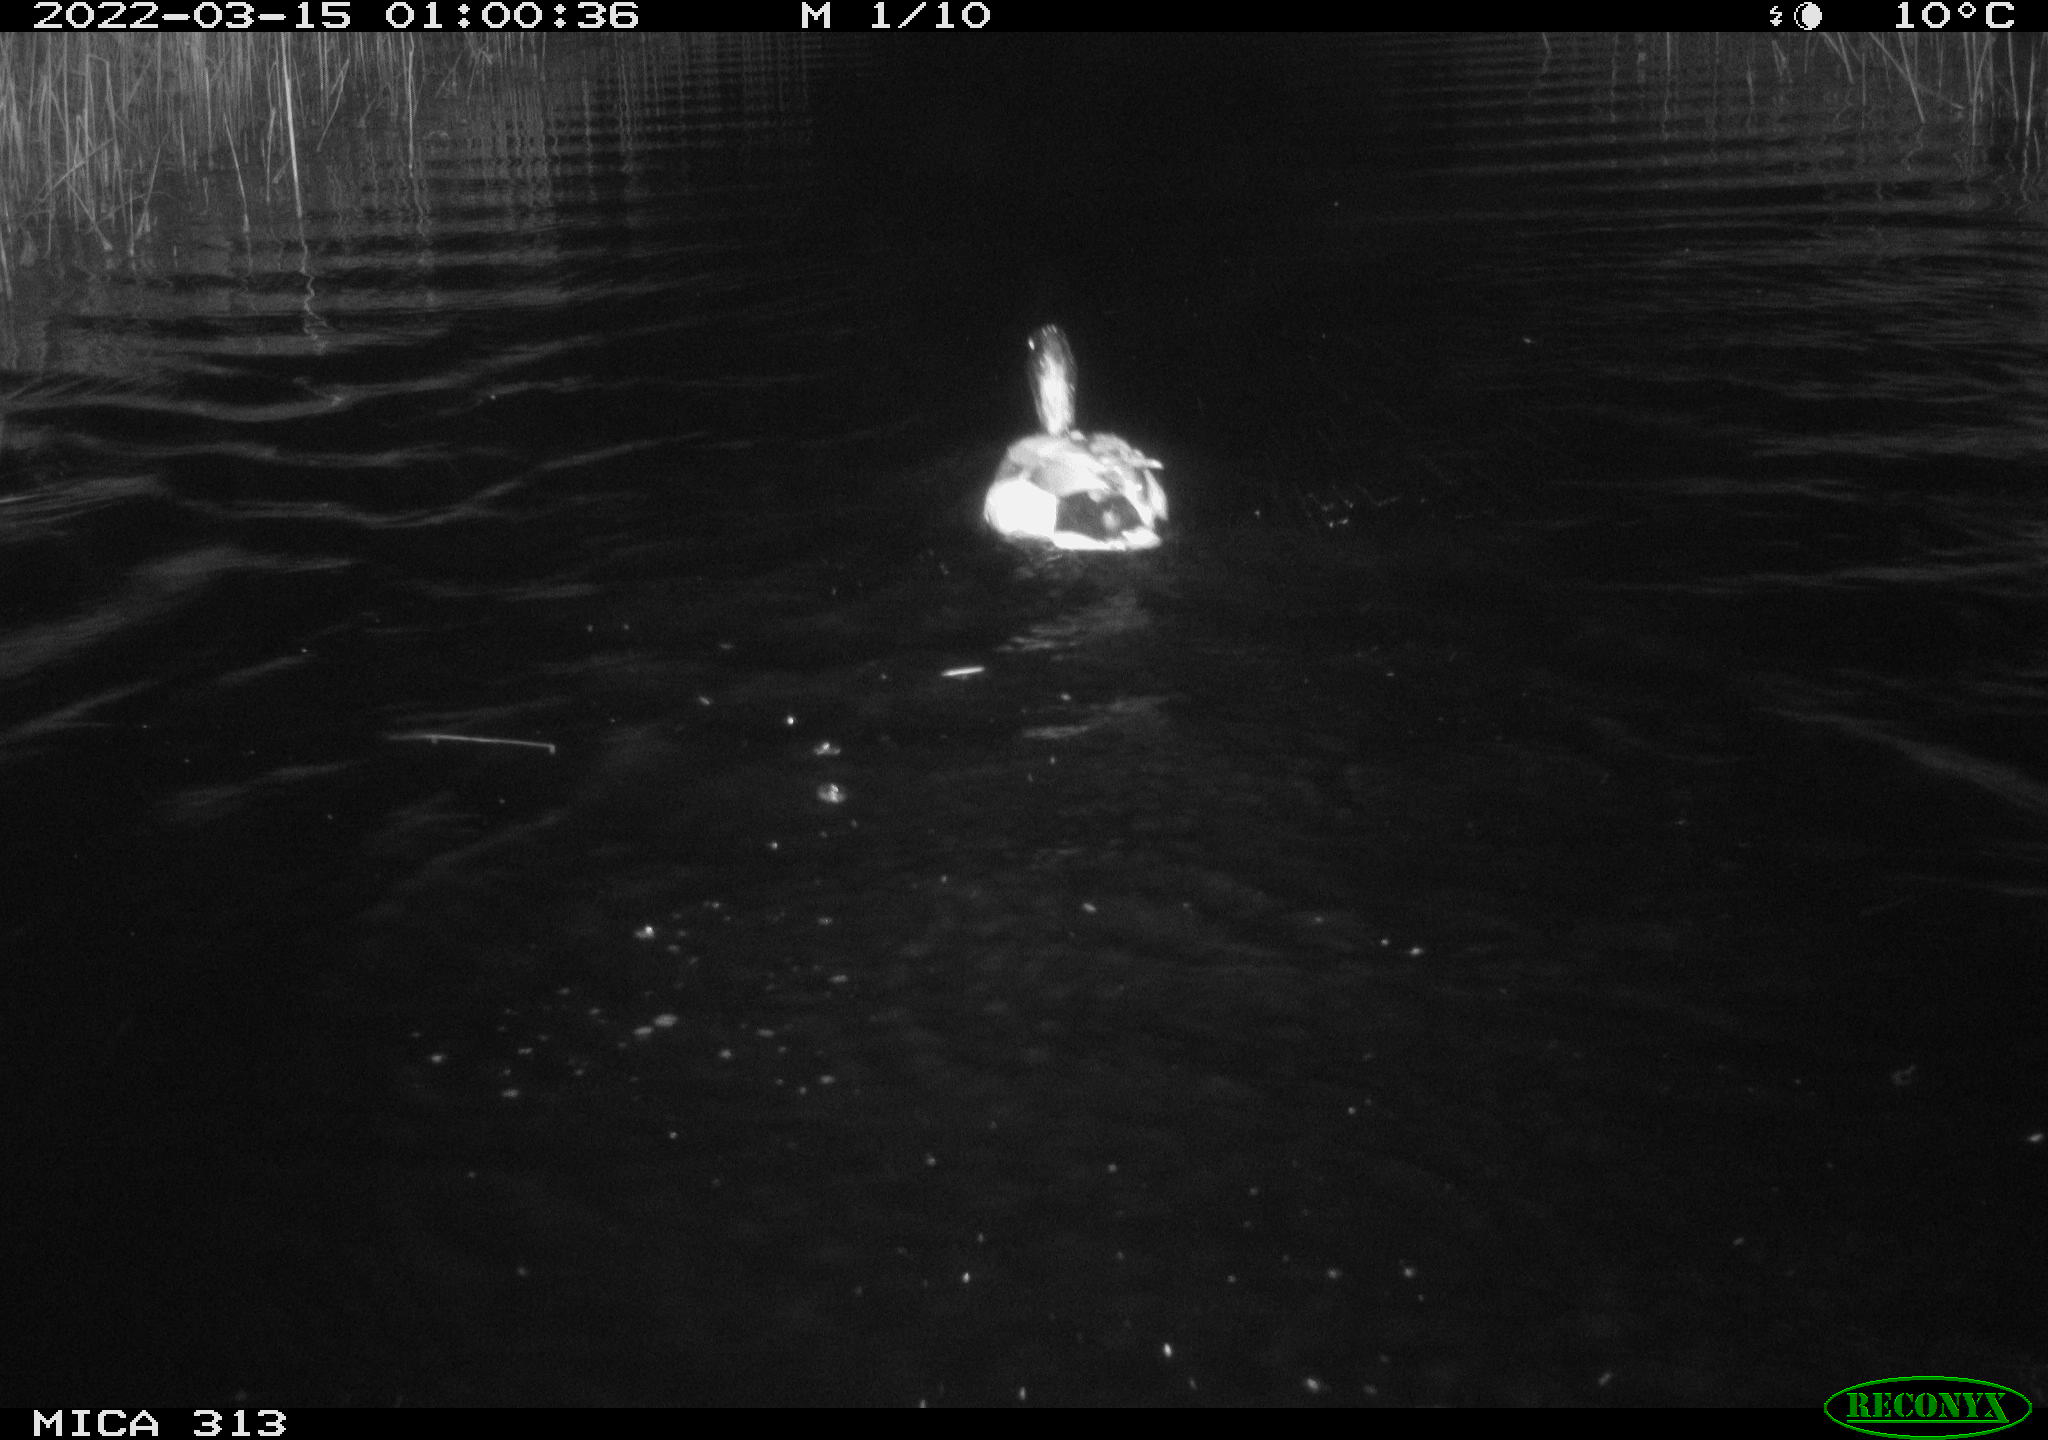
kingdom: Animalia
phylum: Chordata
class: Aves
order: Anseriformes
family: Anatidae
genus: Anas
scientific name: Anas platyrhynchos
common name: Mallard
